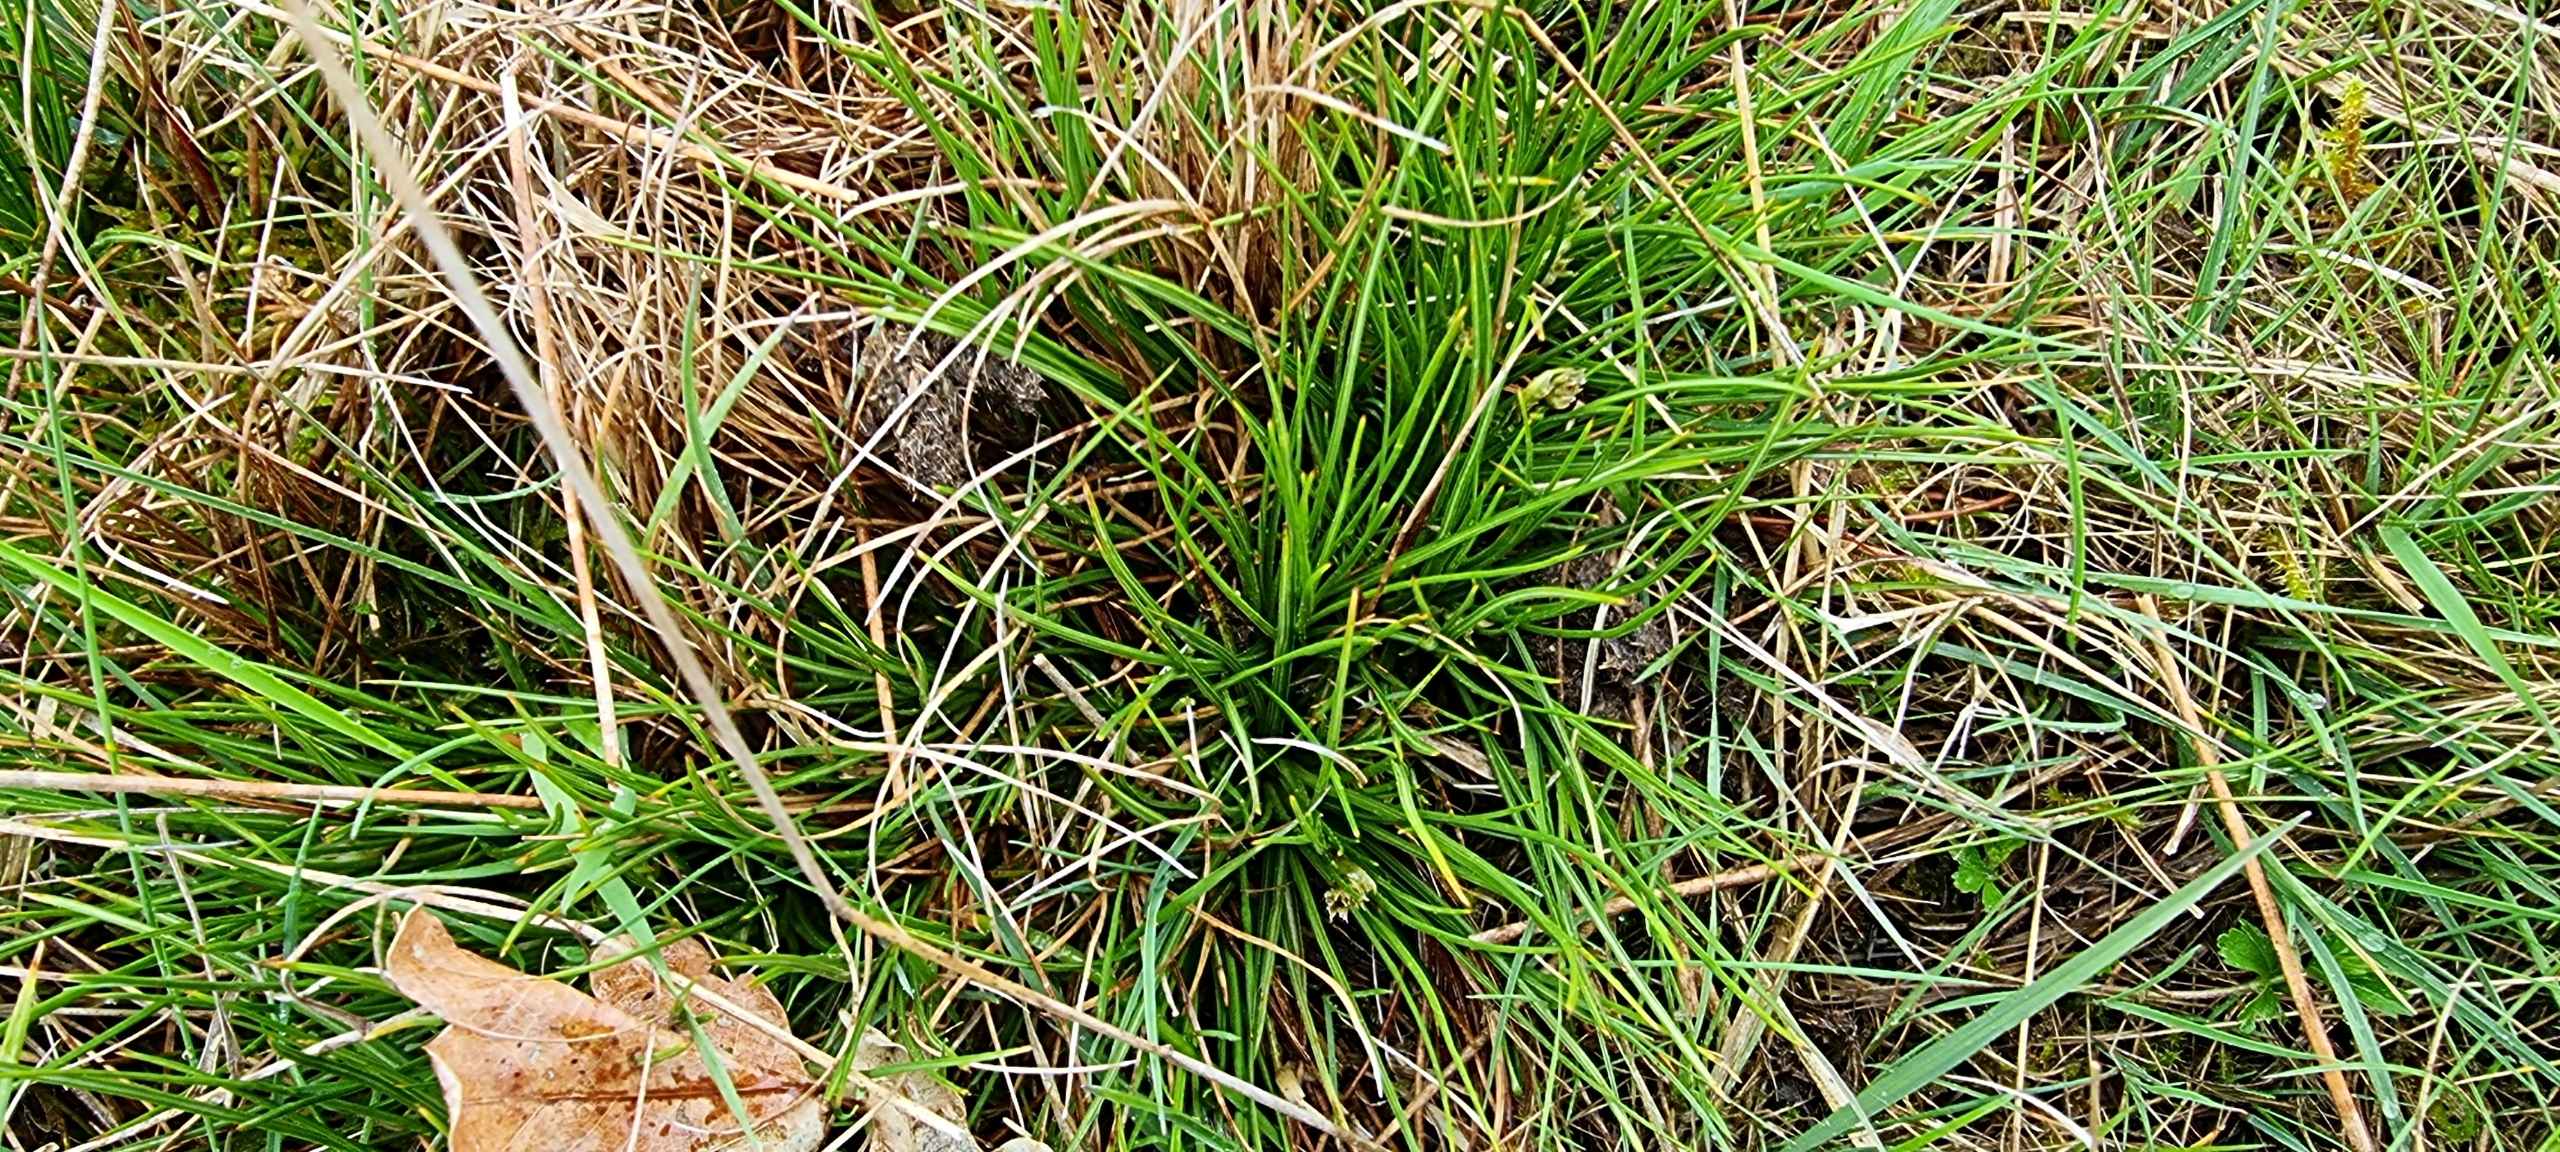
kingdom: Plantae
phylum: Tracheophyta
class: Liliopsida
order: Poales
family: Juncaceae
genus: Juncus
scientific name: Juncus squarrosus
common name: Børste-siv
